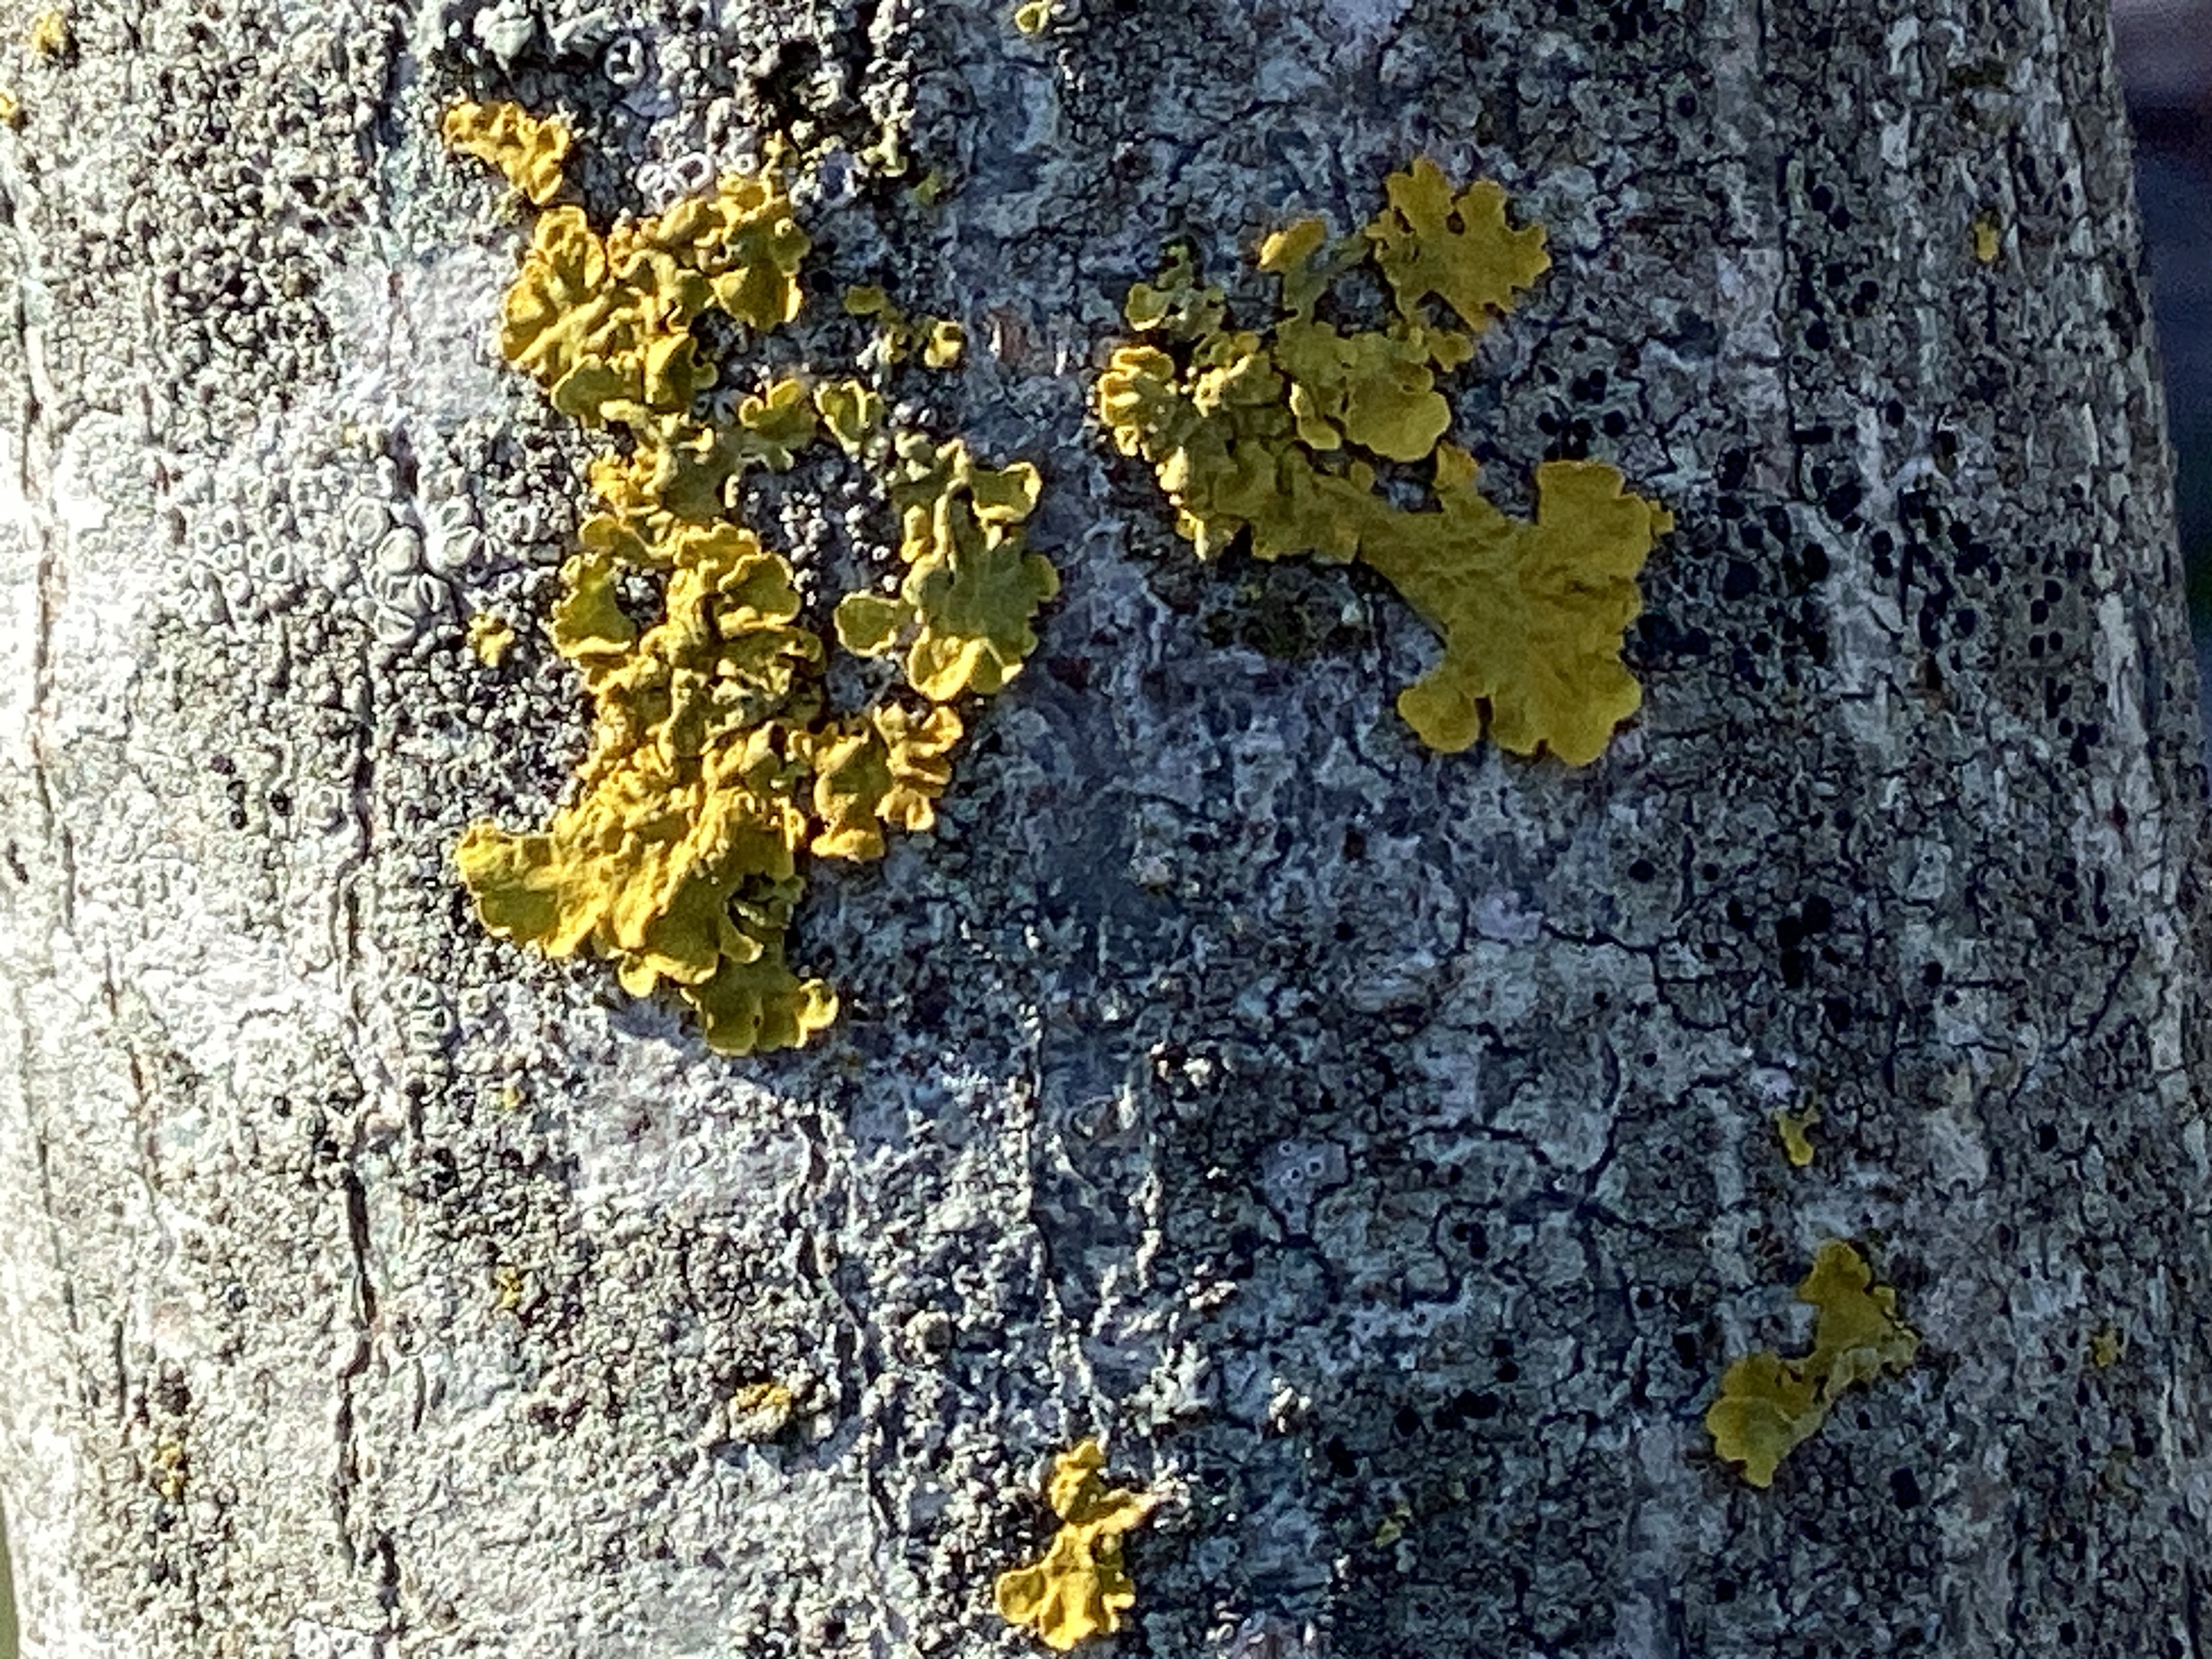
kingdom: Fungi
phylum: Ascomycota
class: Lecanoromycetes
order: Teloschistales
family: Teloschistaceae
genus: Xanthoria
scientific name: Xanthoria parietina
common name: Almindelig væggelav
